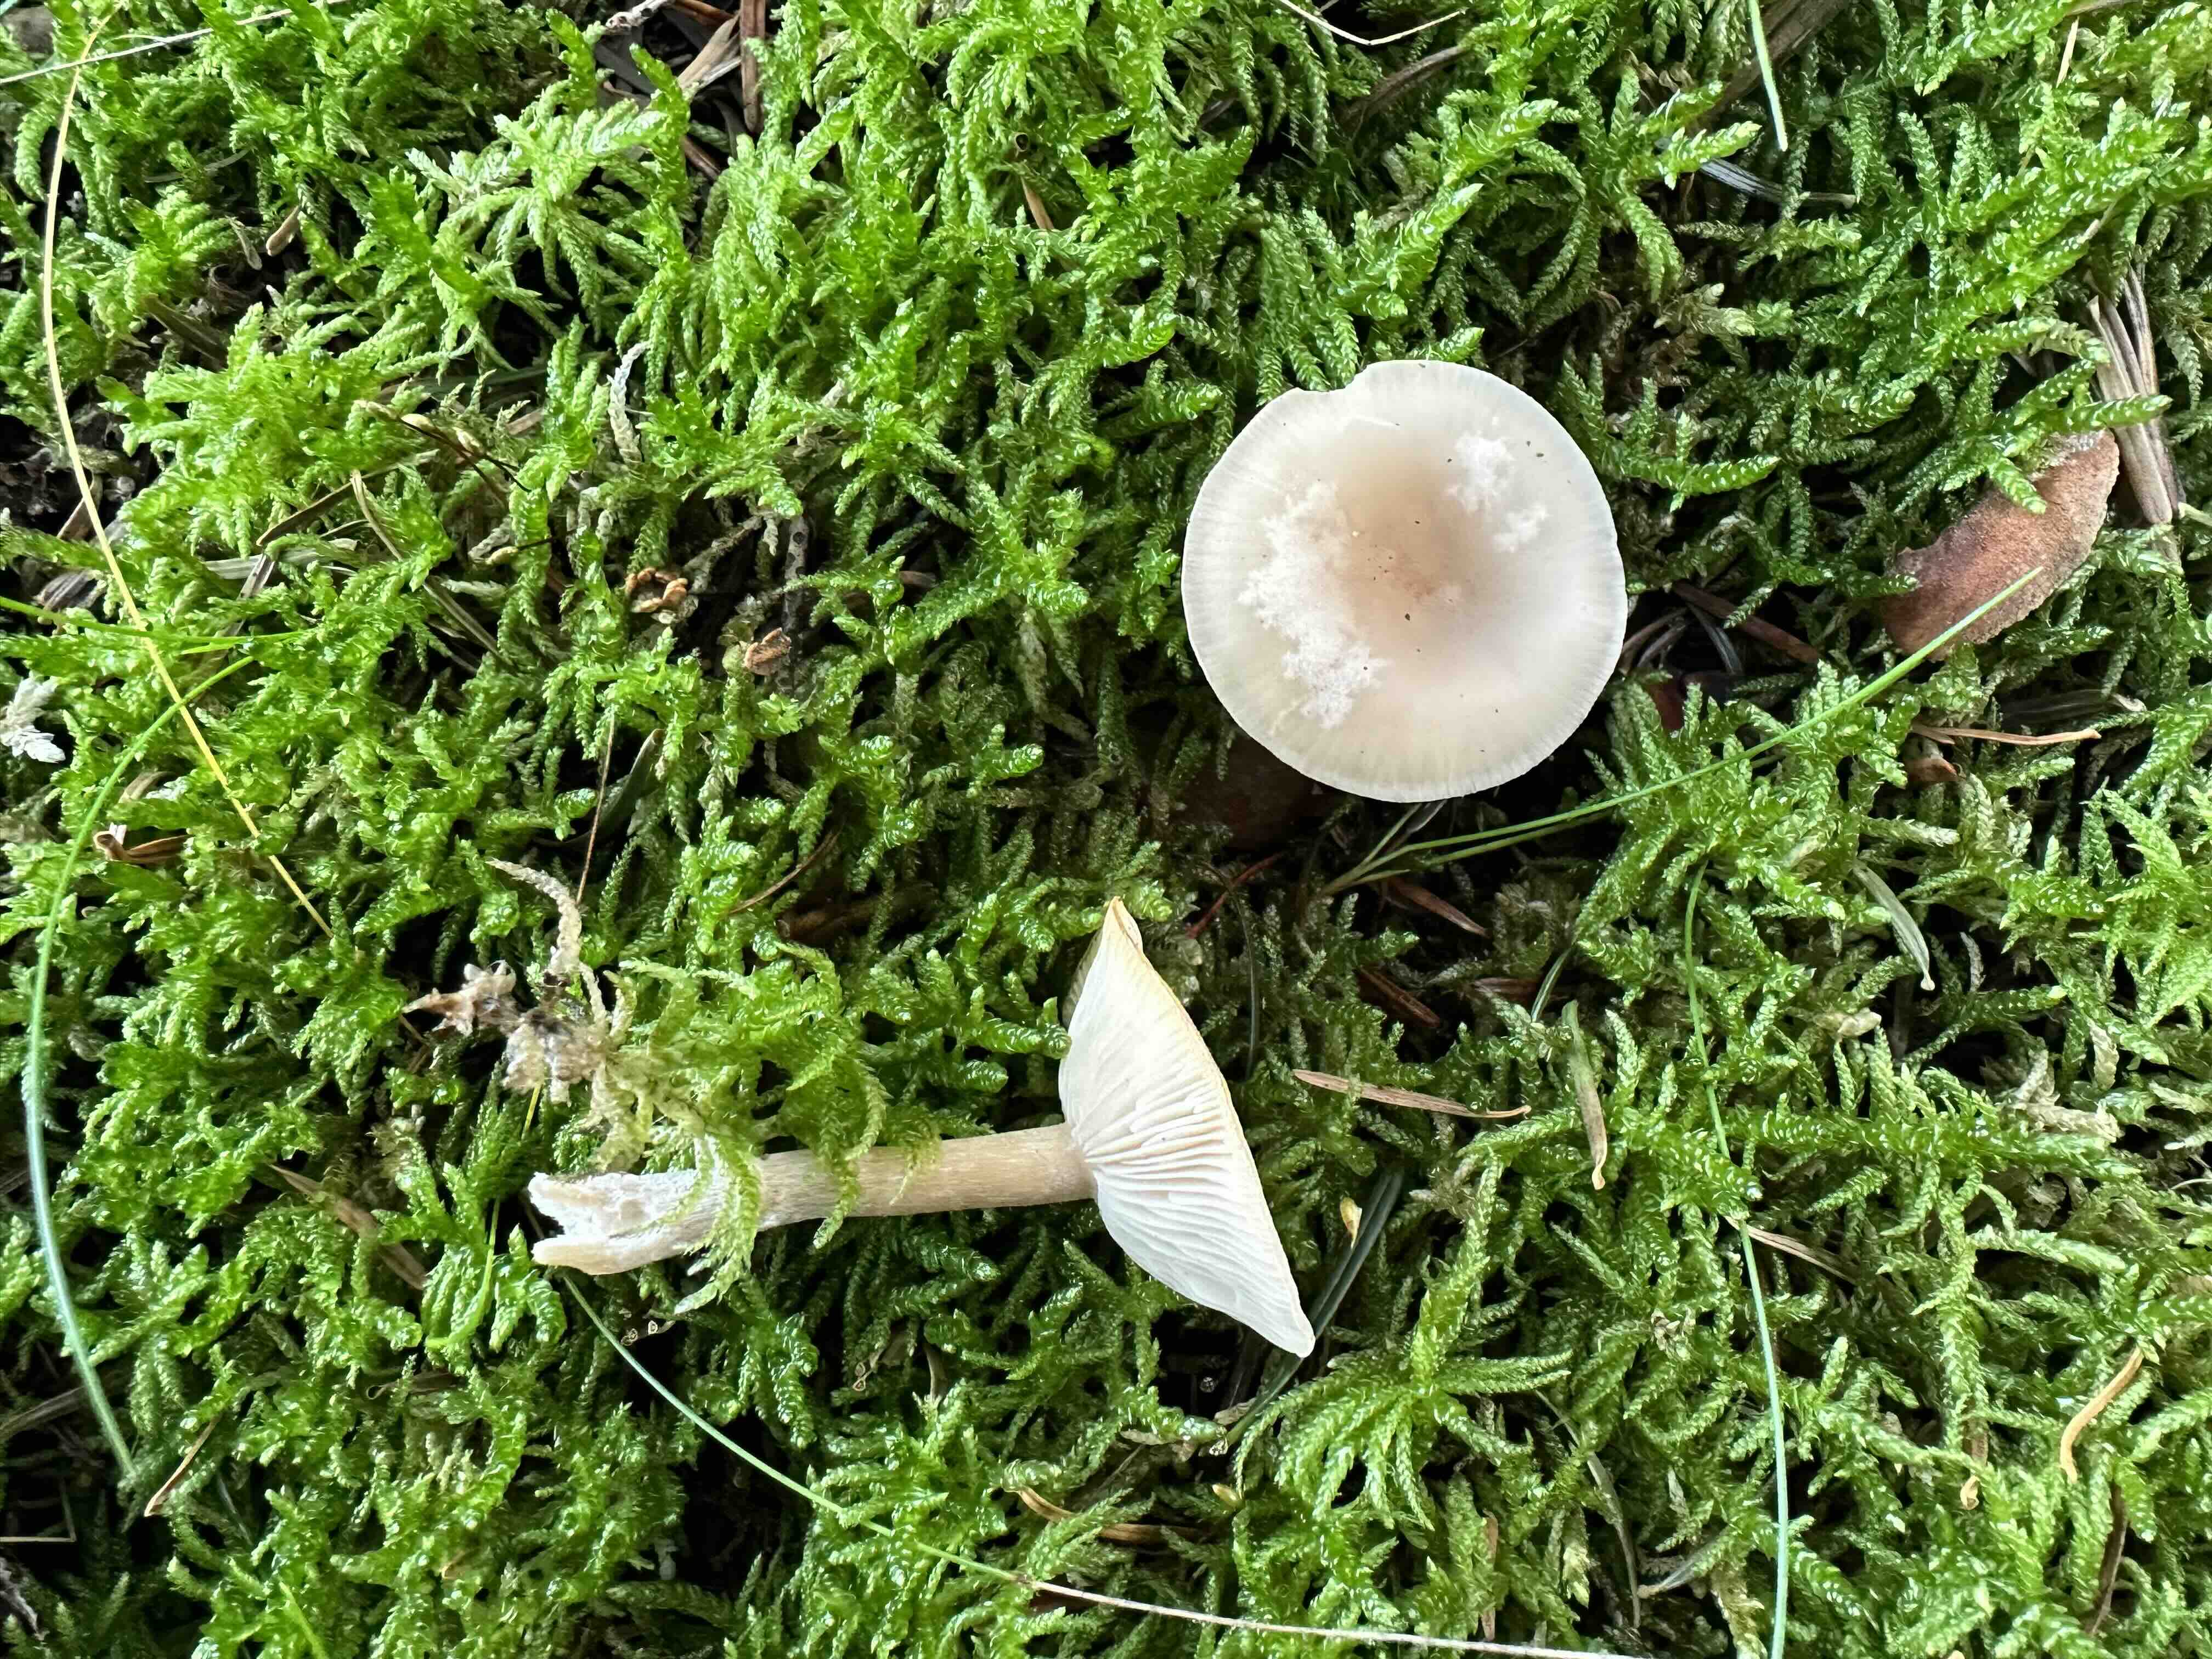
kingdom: Fungi
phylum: Basidiomycota
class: Agaricomycetes
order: Agaricales
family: Tricholomataceae
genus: Clitocybe
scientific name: Clitocybe fragrans
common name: vellugtende tragthat
